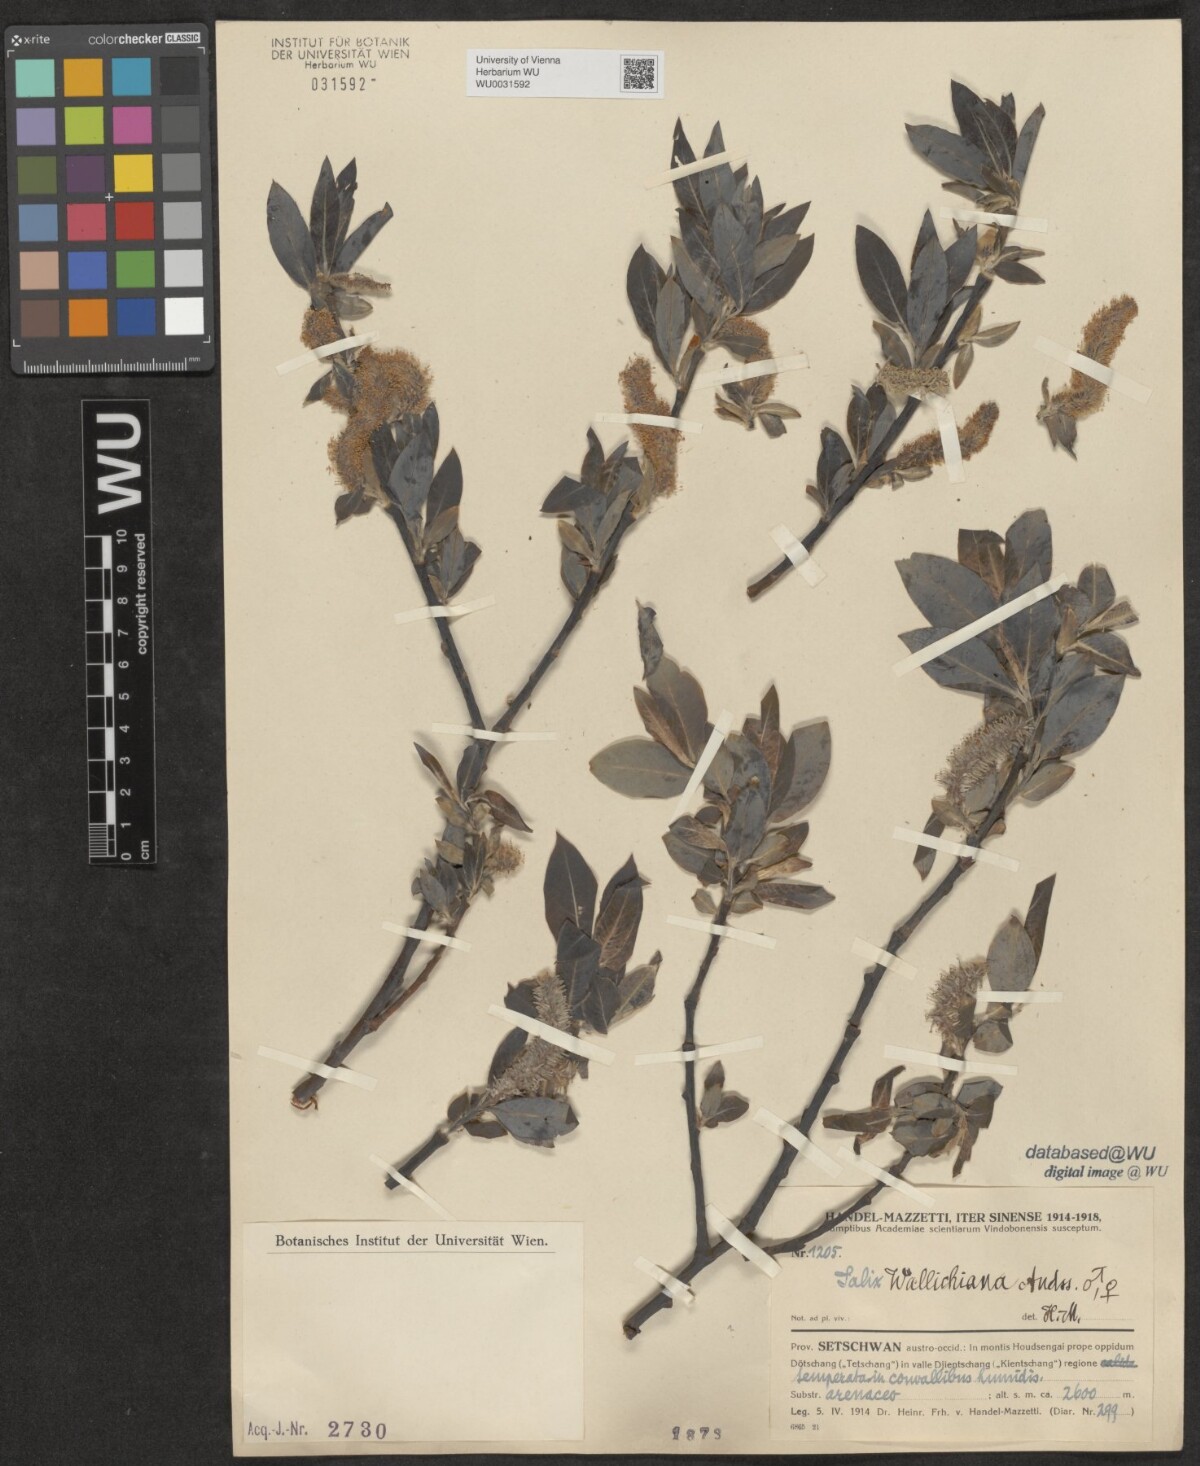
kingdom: Plantae
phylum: Tracheophyta
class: Magnoliopsida
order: Malpighiales
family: Salicaceae
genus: Salix
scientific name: Salix disperma
